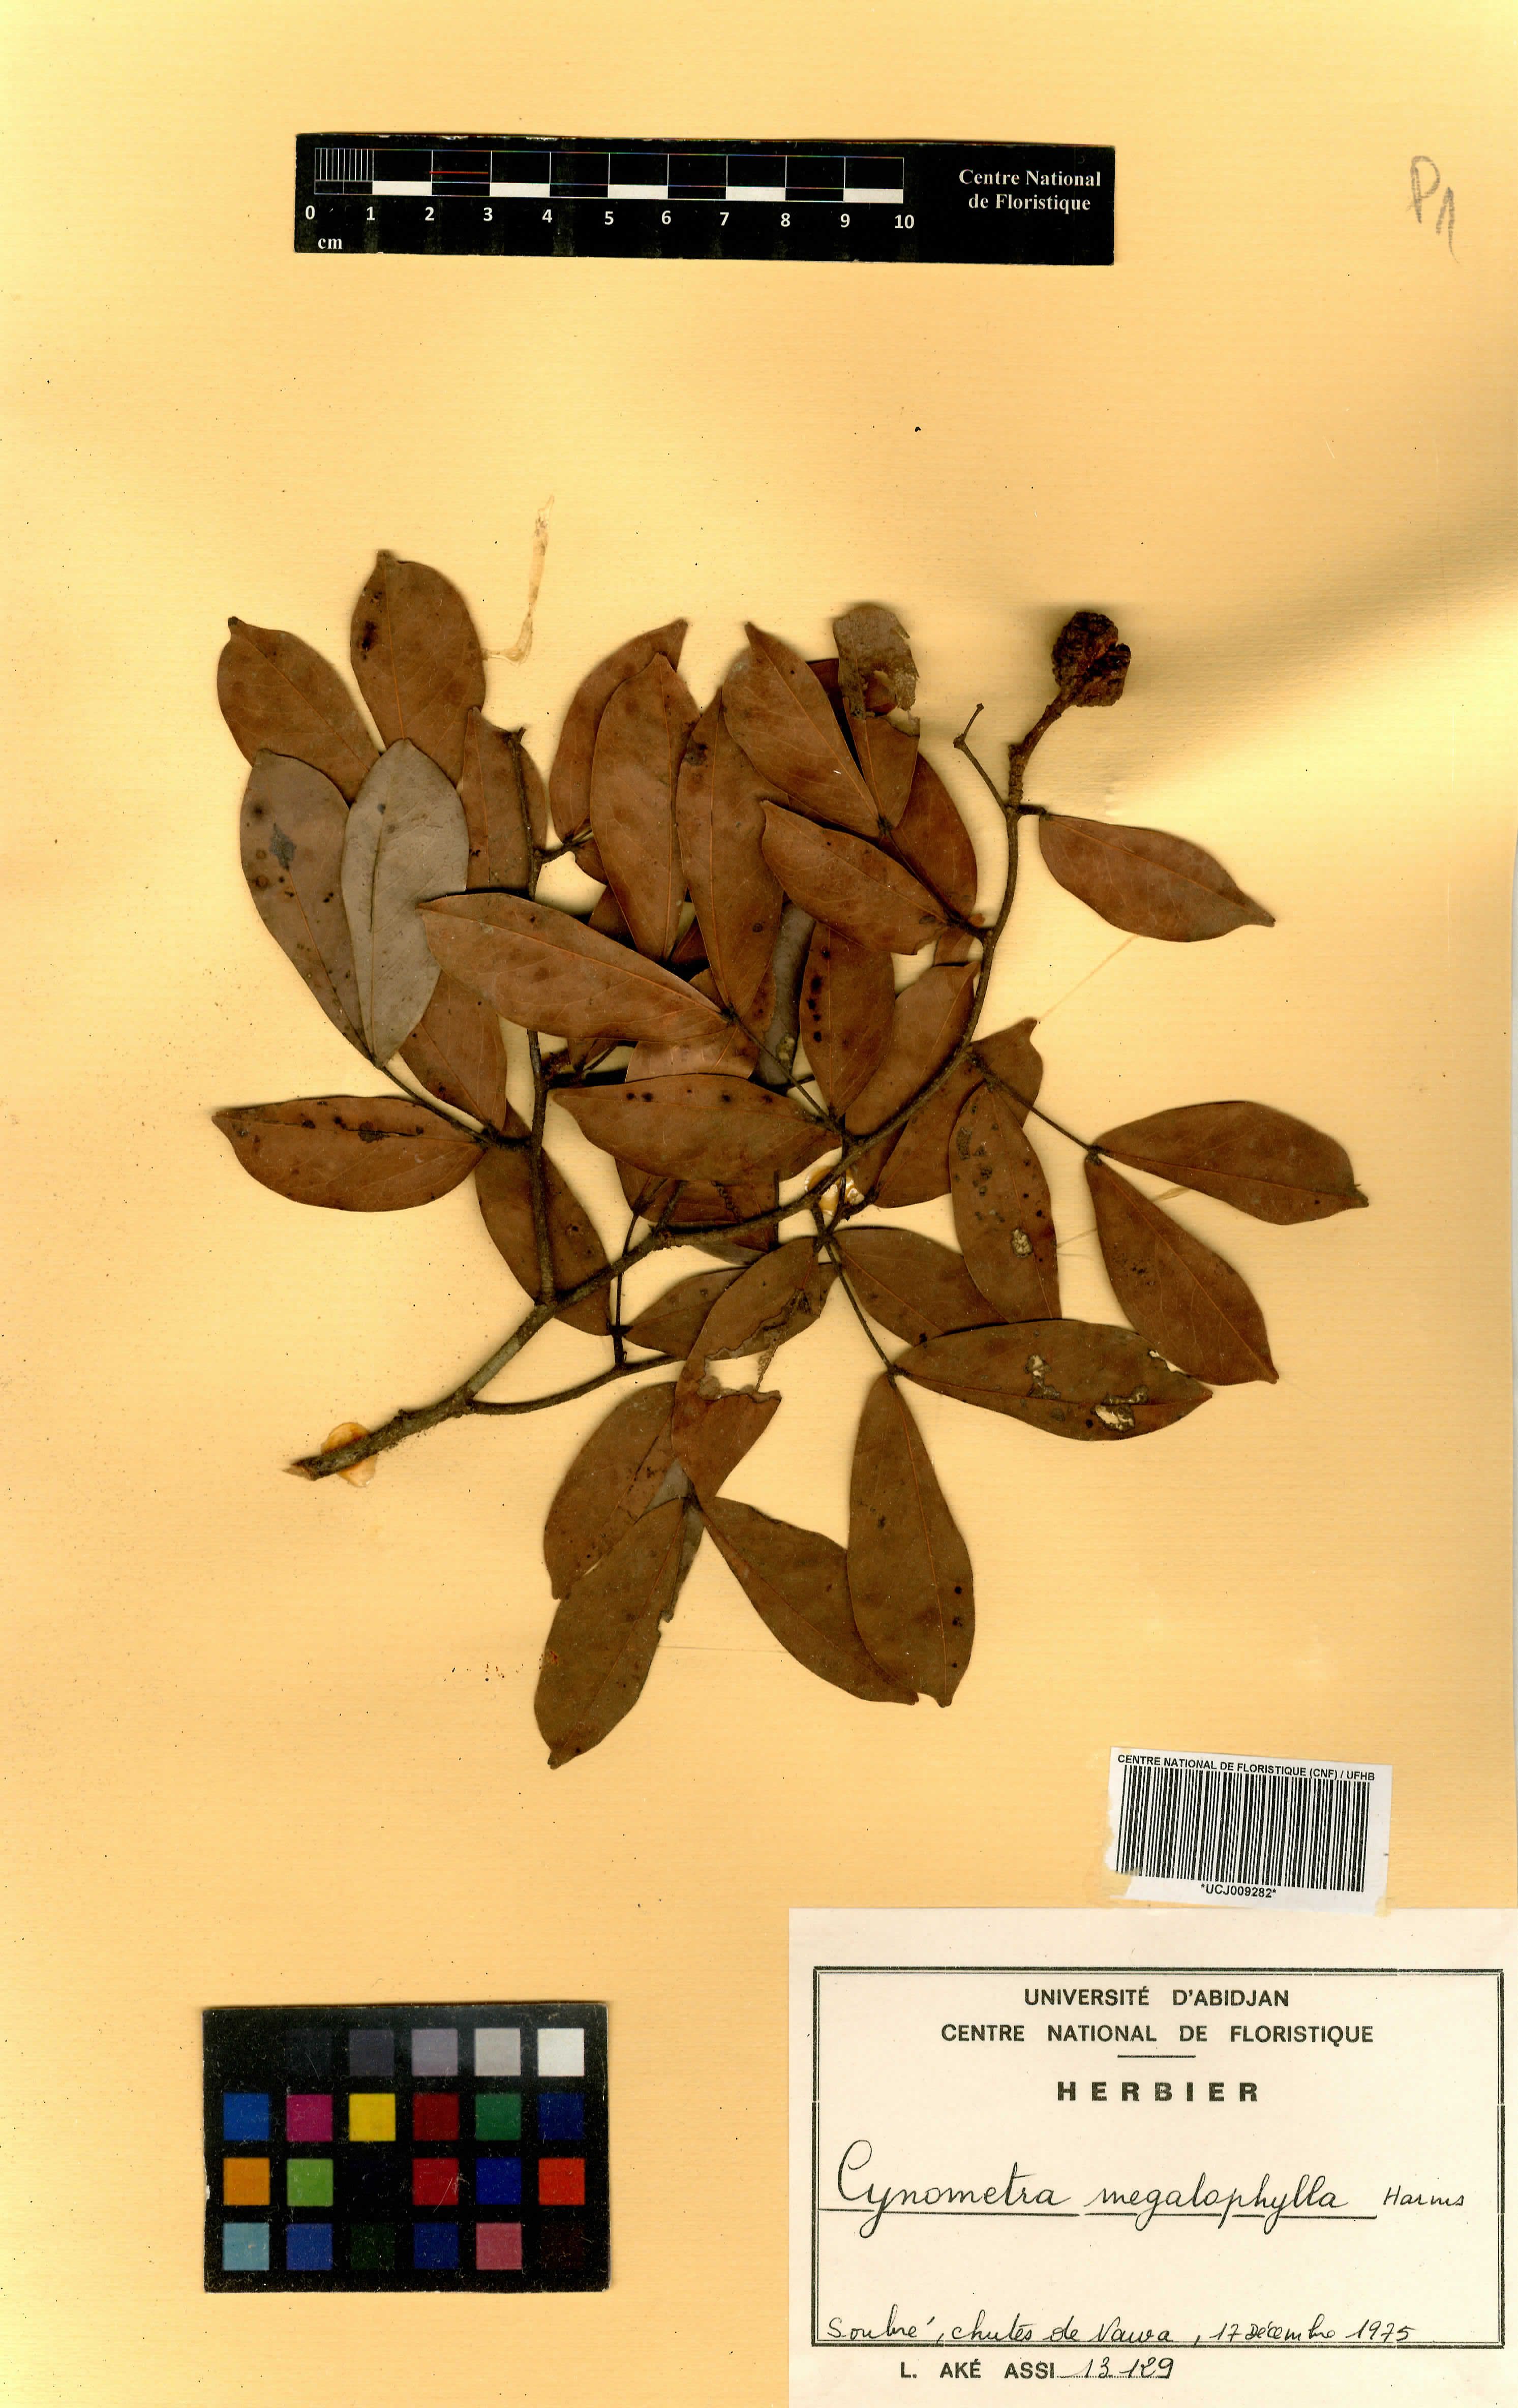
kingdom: Plantae
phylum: Tracheophyta
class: Magnoliopsida
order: Fabales
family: Fabaceae
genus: Cynometra
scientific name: Cynometra megalophylla
